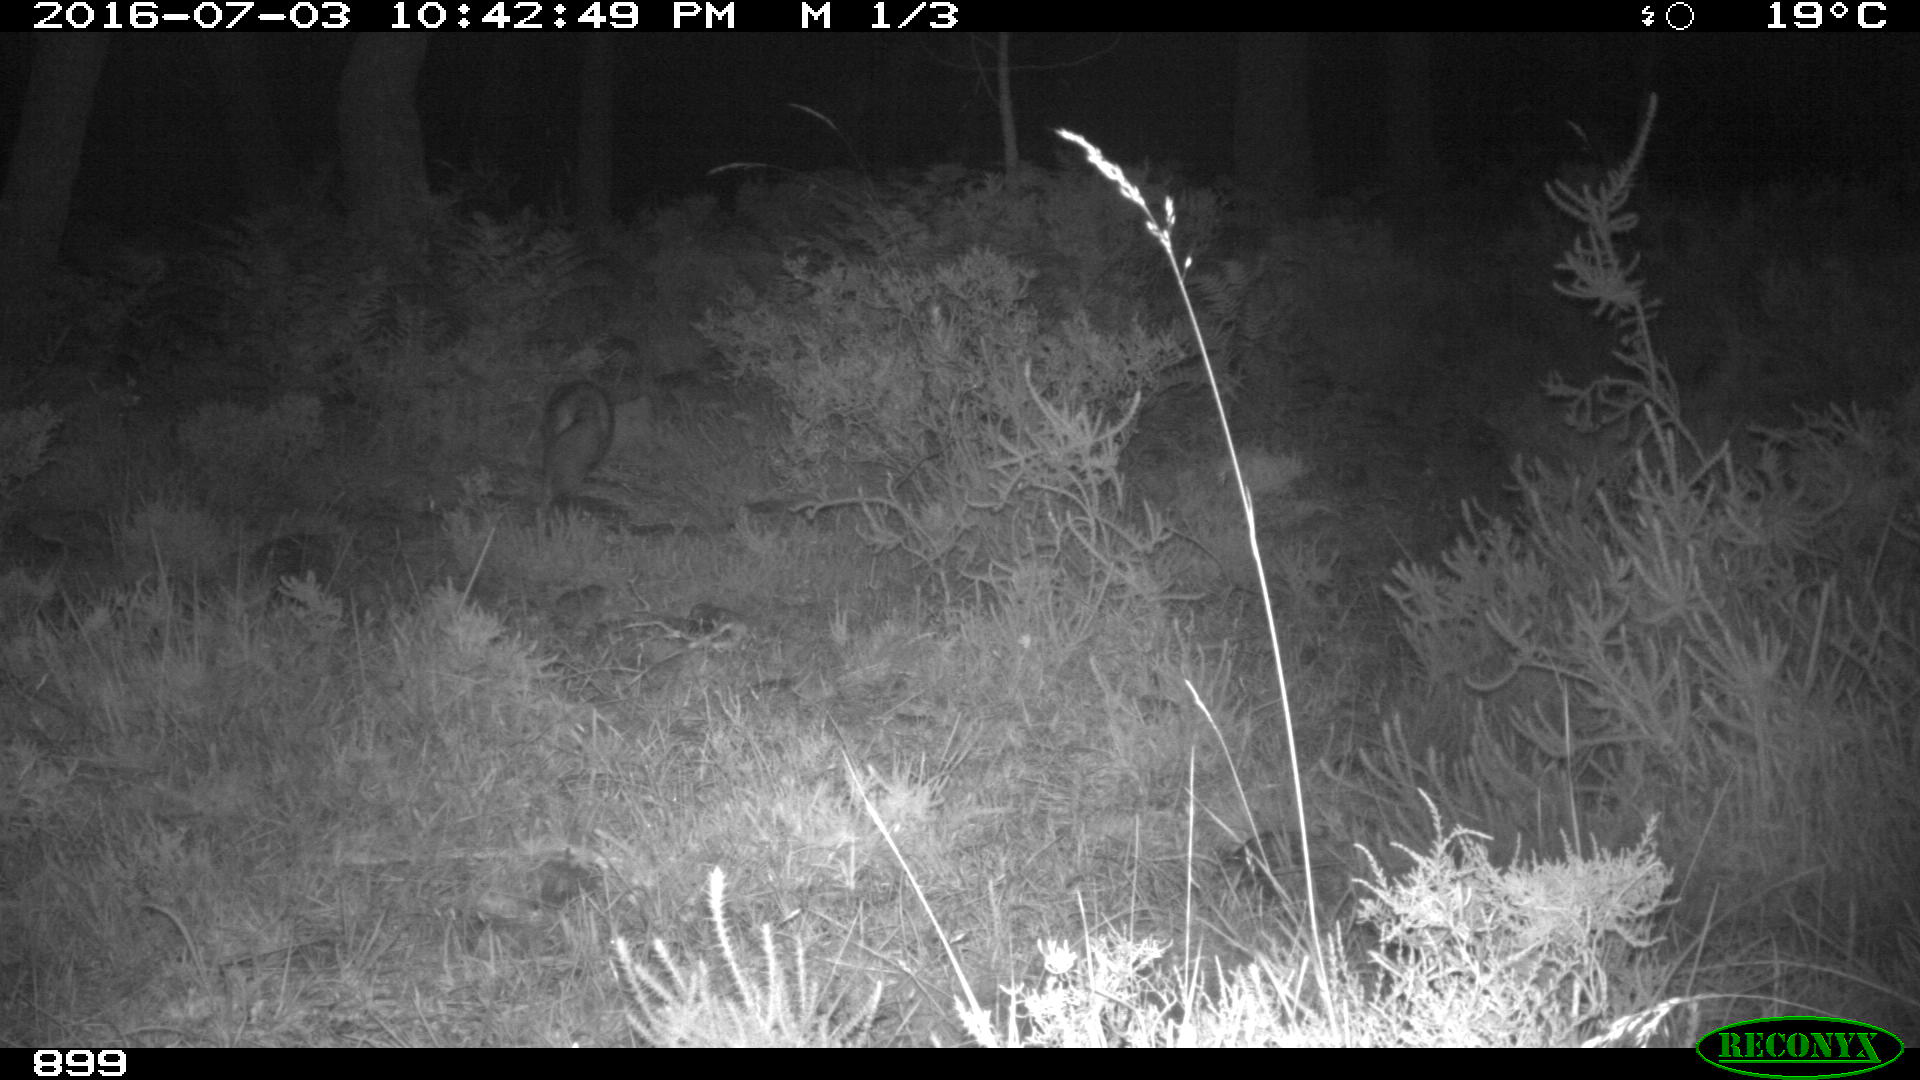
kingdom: Animalia
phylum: Chordata
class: Mammalia
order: Carnivora
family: Canidae
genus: Vulpes
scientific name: Vulpes vulpes
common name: Red fox
